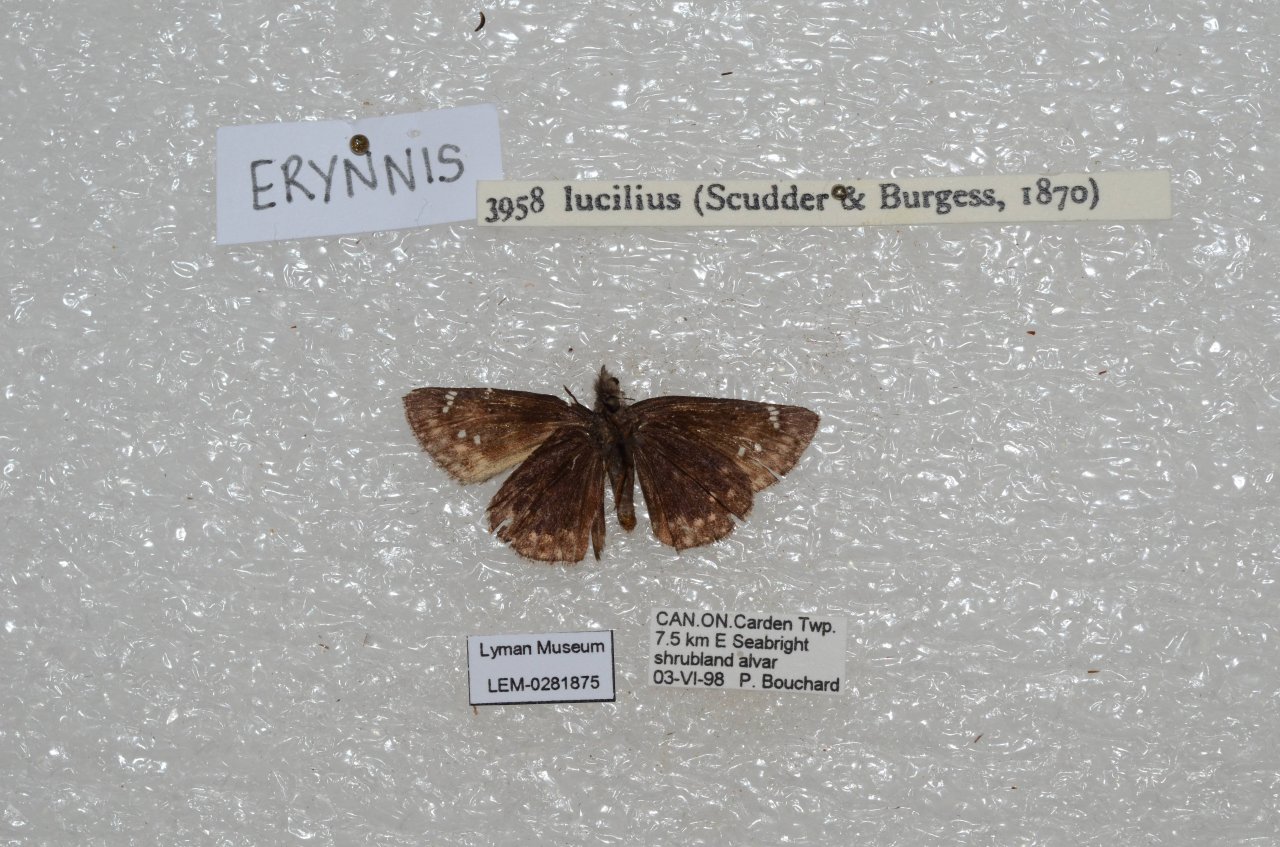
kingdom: Animalia
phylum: Arthropoda
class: Insecta
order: Lepidoptera
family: Hesperiidae
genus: Gesta
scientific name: Gesta
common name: Columbine Duskywing
